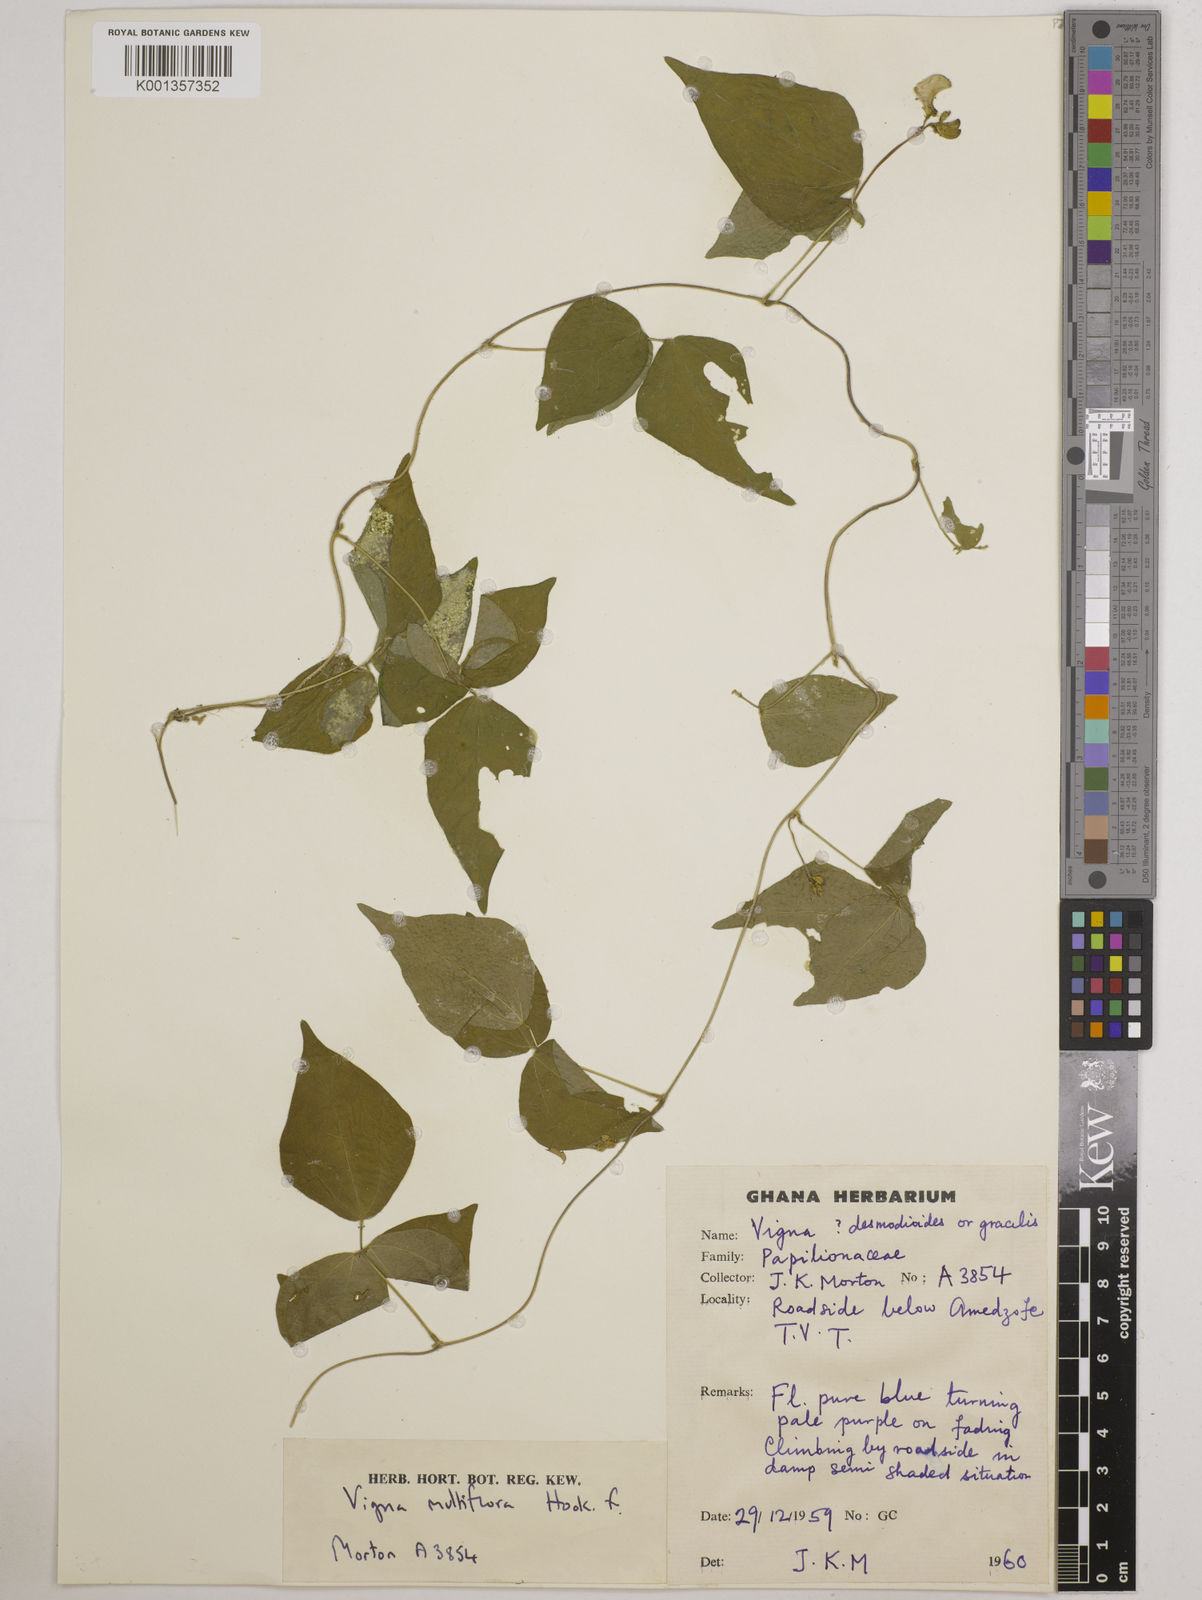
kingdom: Plantae
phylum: Tracheophyta
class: Magnoliopsida
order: Fabales
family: Fabaceae
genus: Vigna
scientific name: Vigna gracilis
